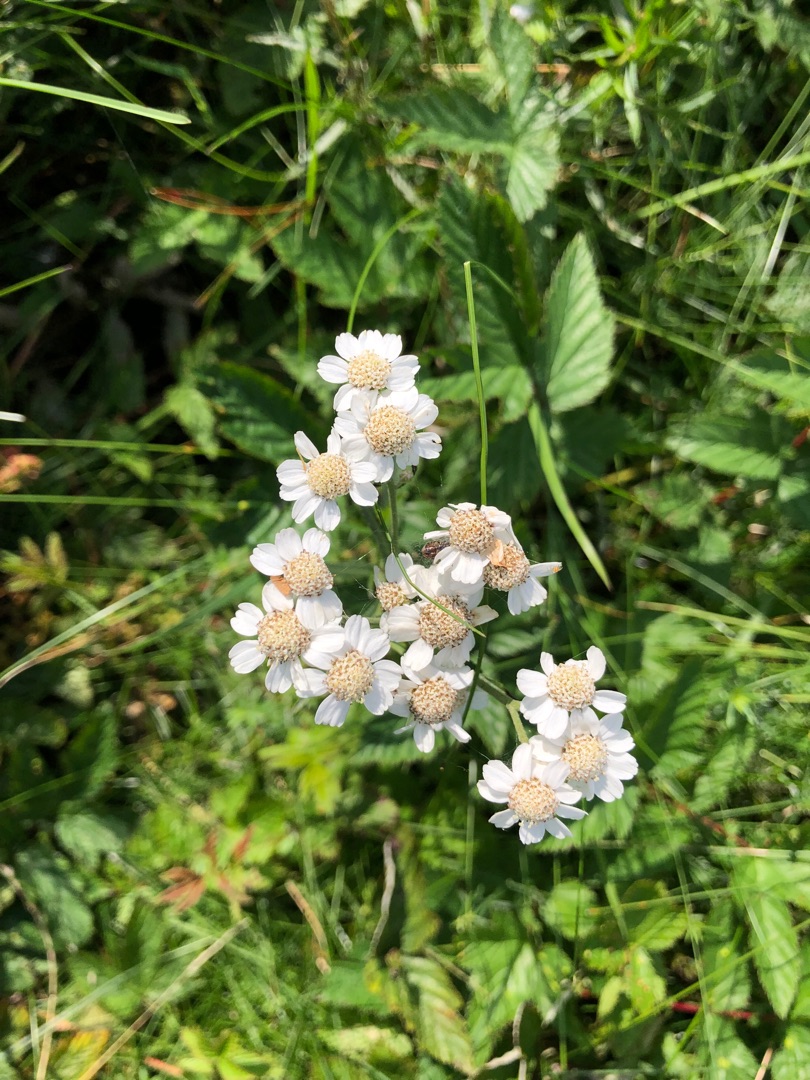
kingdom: Plantae
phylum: Tracheophyta
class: Magnoliopsida
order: Asterales
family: Asteraceae
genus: Achillea
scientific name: Achillea ptarmica
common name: Nyse-røllike
